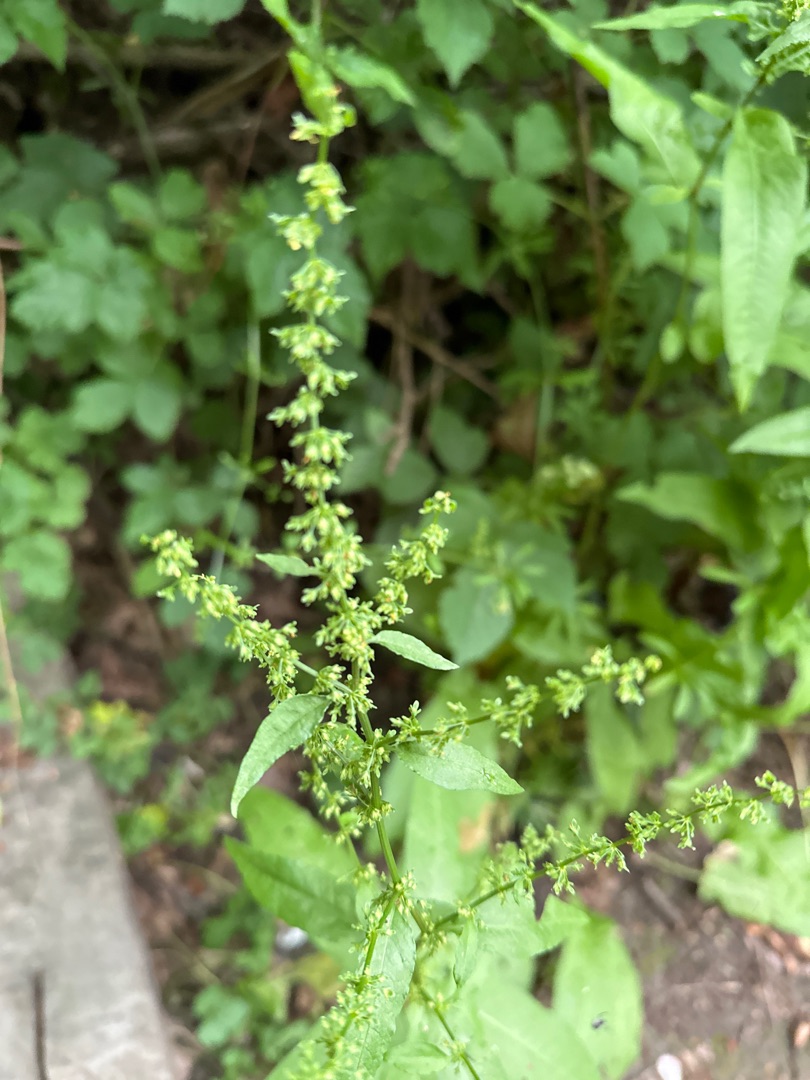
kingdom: Plantae
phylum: Tracheophyta
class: Magnoliopsida
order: Caryophyllales
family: Polygonaceae
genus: Rumex
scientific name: Rumex sanguineus
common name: Skov-skræppe
